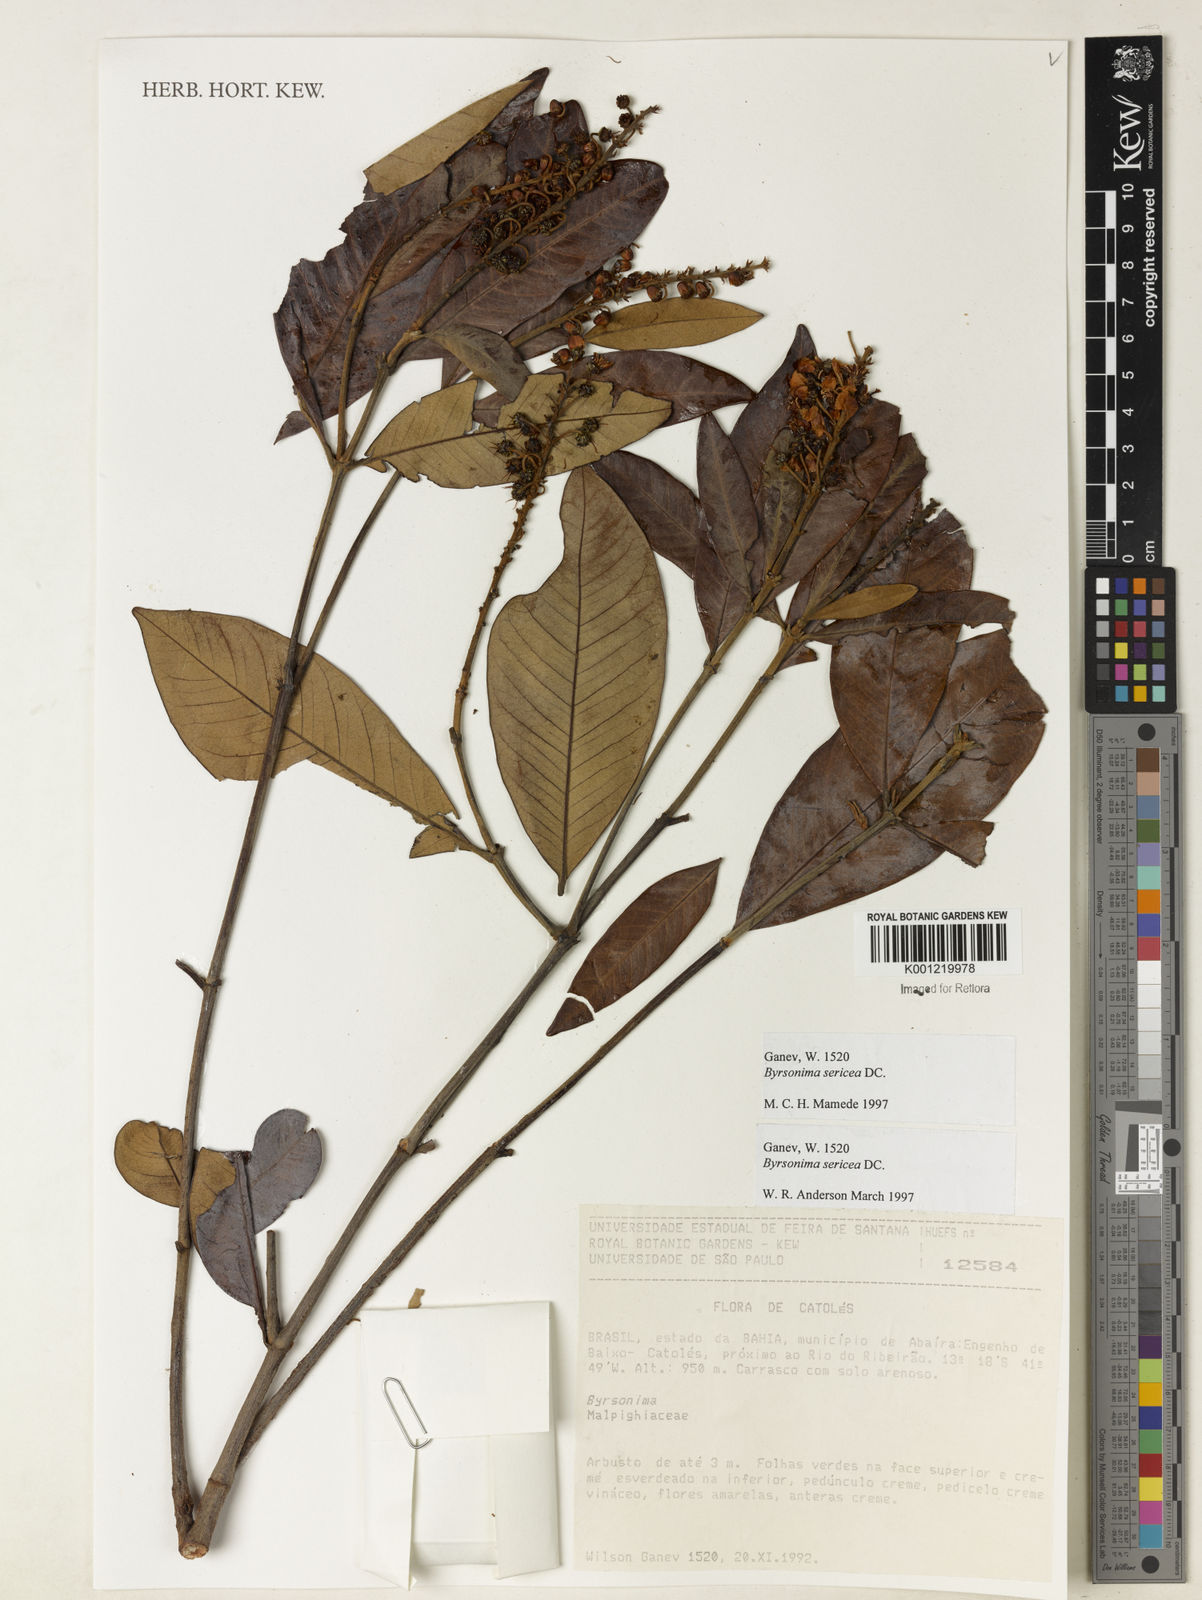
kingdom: Plantae
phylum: Tracheophyta
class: Magnoliopsida
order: Malpighiales
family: Malpighiaceae
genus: Byrsonima
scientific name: Byrsonima sericea
